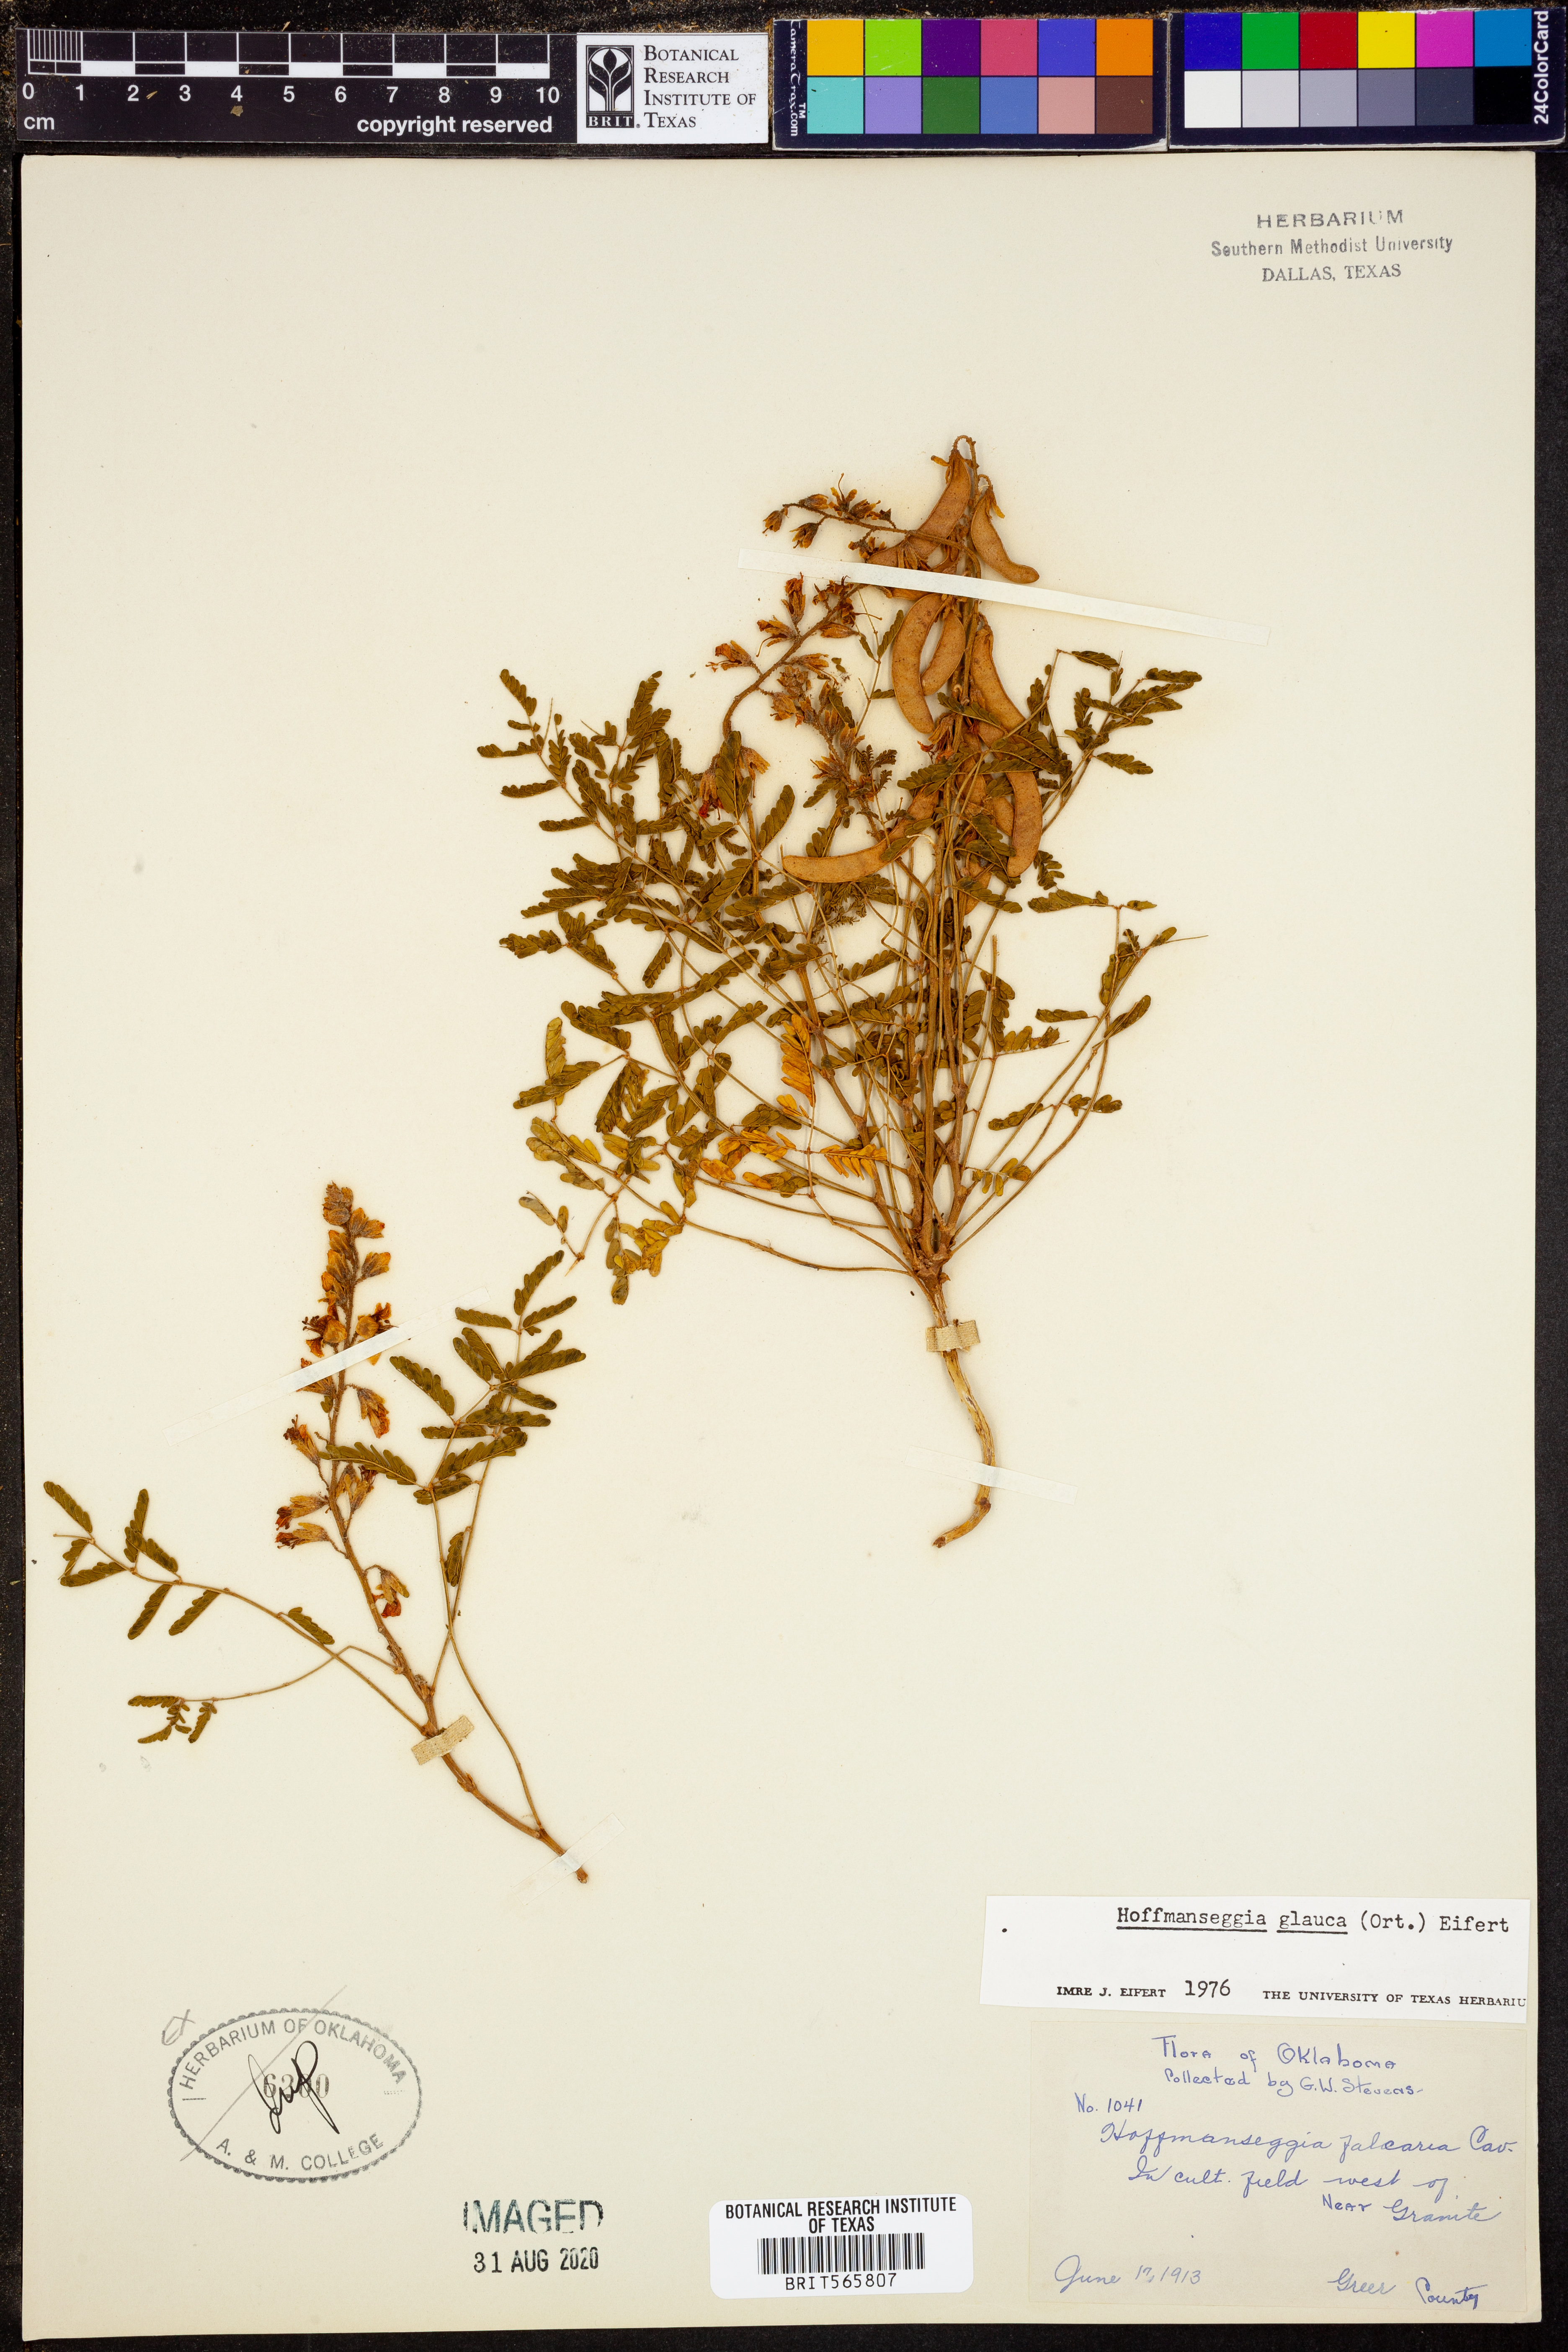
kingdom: Plantae
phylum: Tracheophyta
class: Magnoliopsida
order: Fabales
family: Fabaceae
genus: Hoffmannseggia
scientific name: Hoffmannseggia glauca
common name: Pignut
